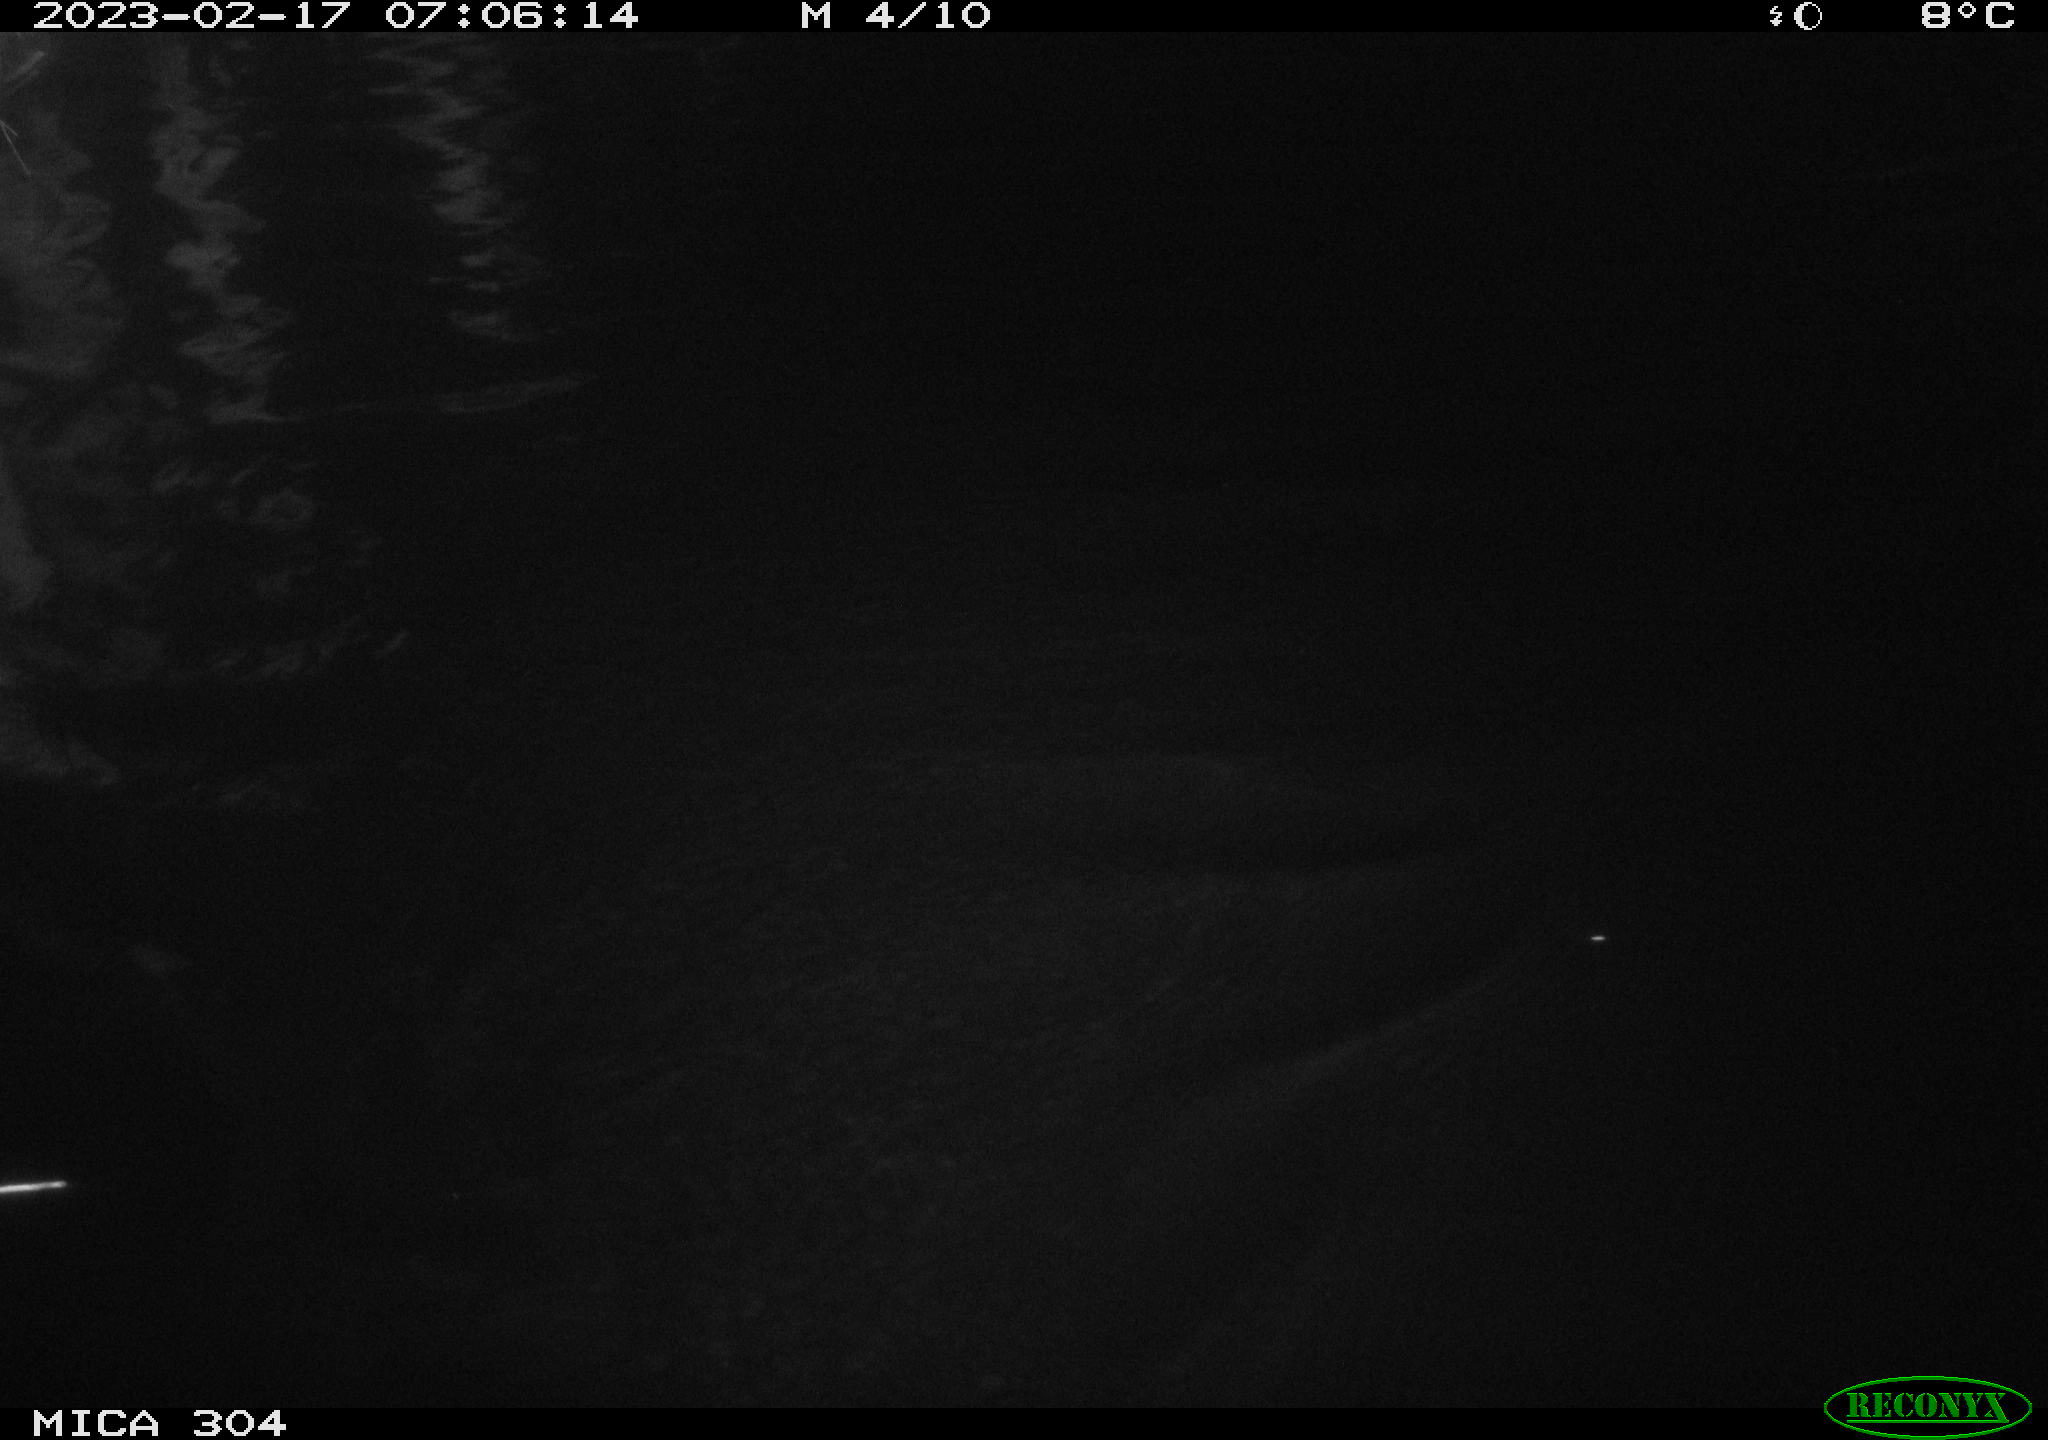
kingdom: Animalia
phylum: Chordata
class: Aves
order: Gruiformes
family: Rallidae
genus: Fulica
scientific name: Fulica atra
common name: Eurasian coot
